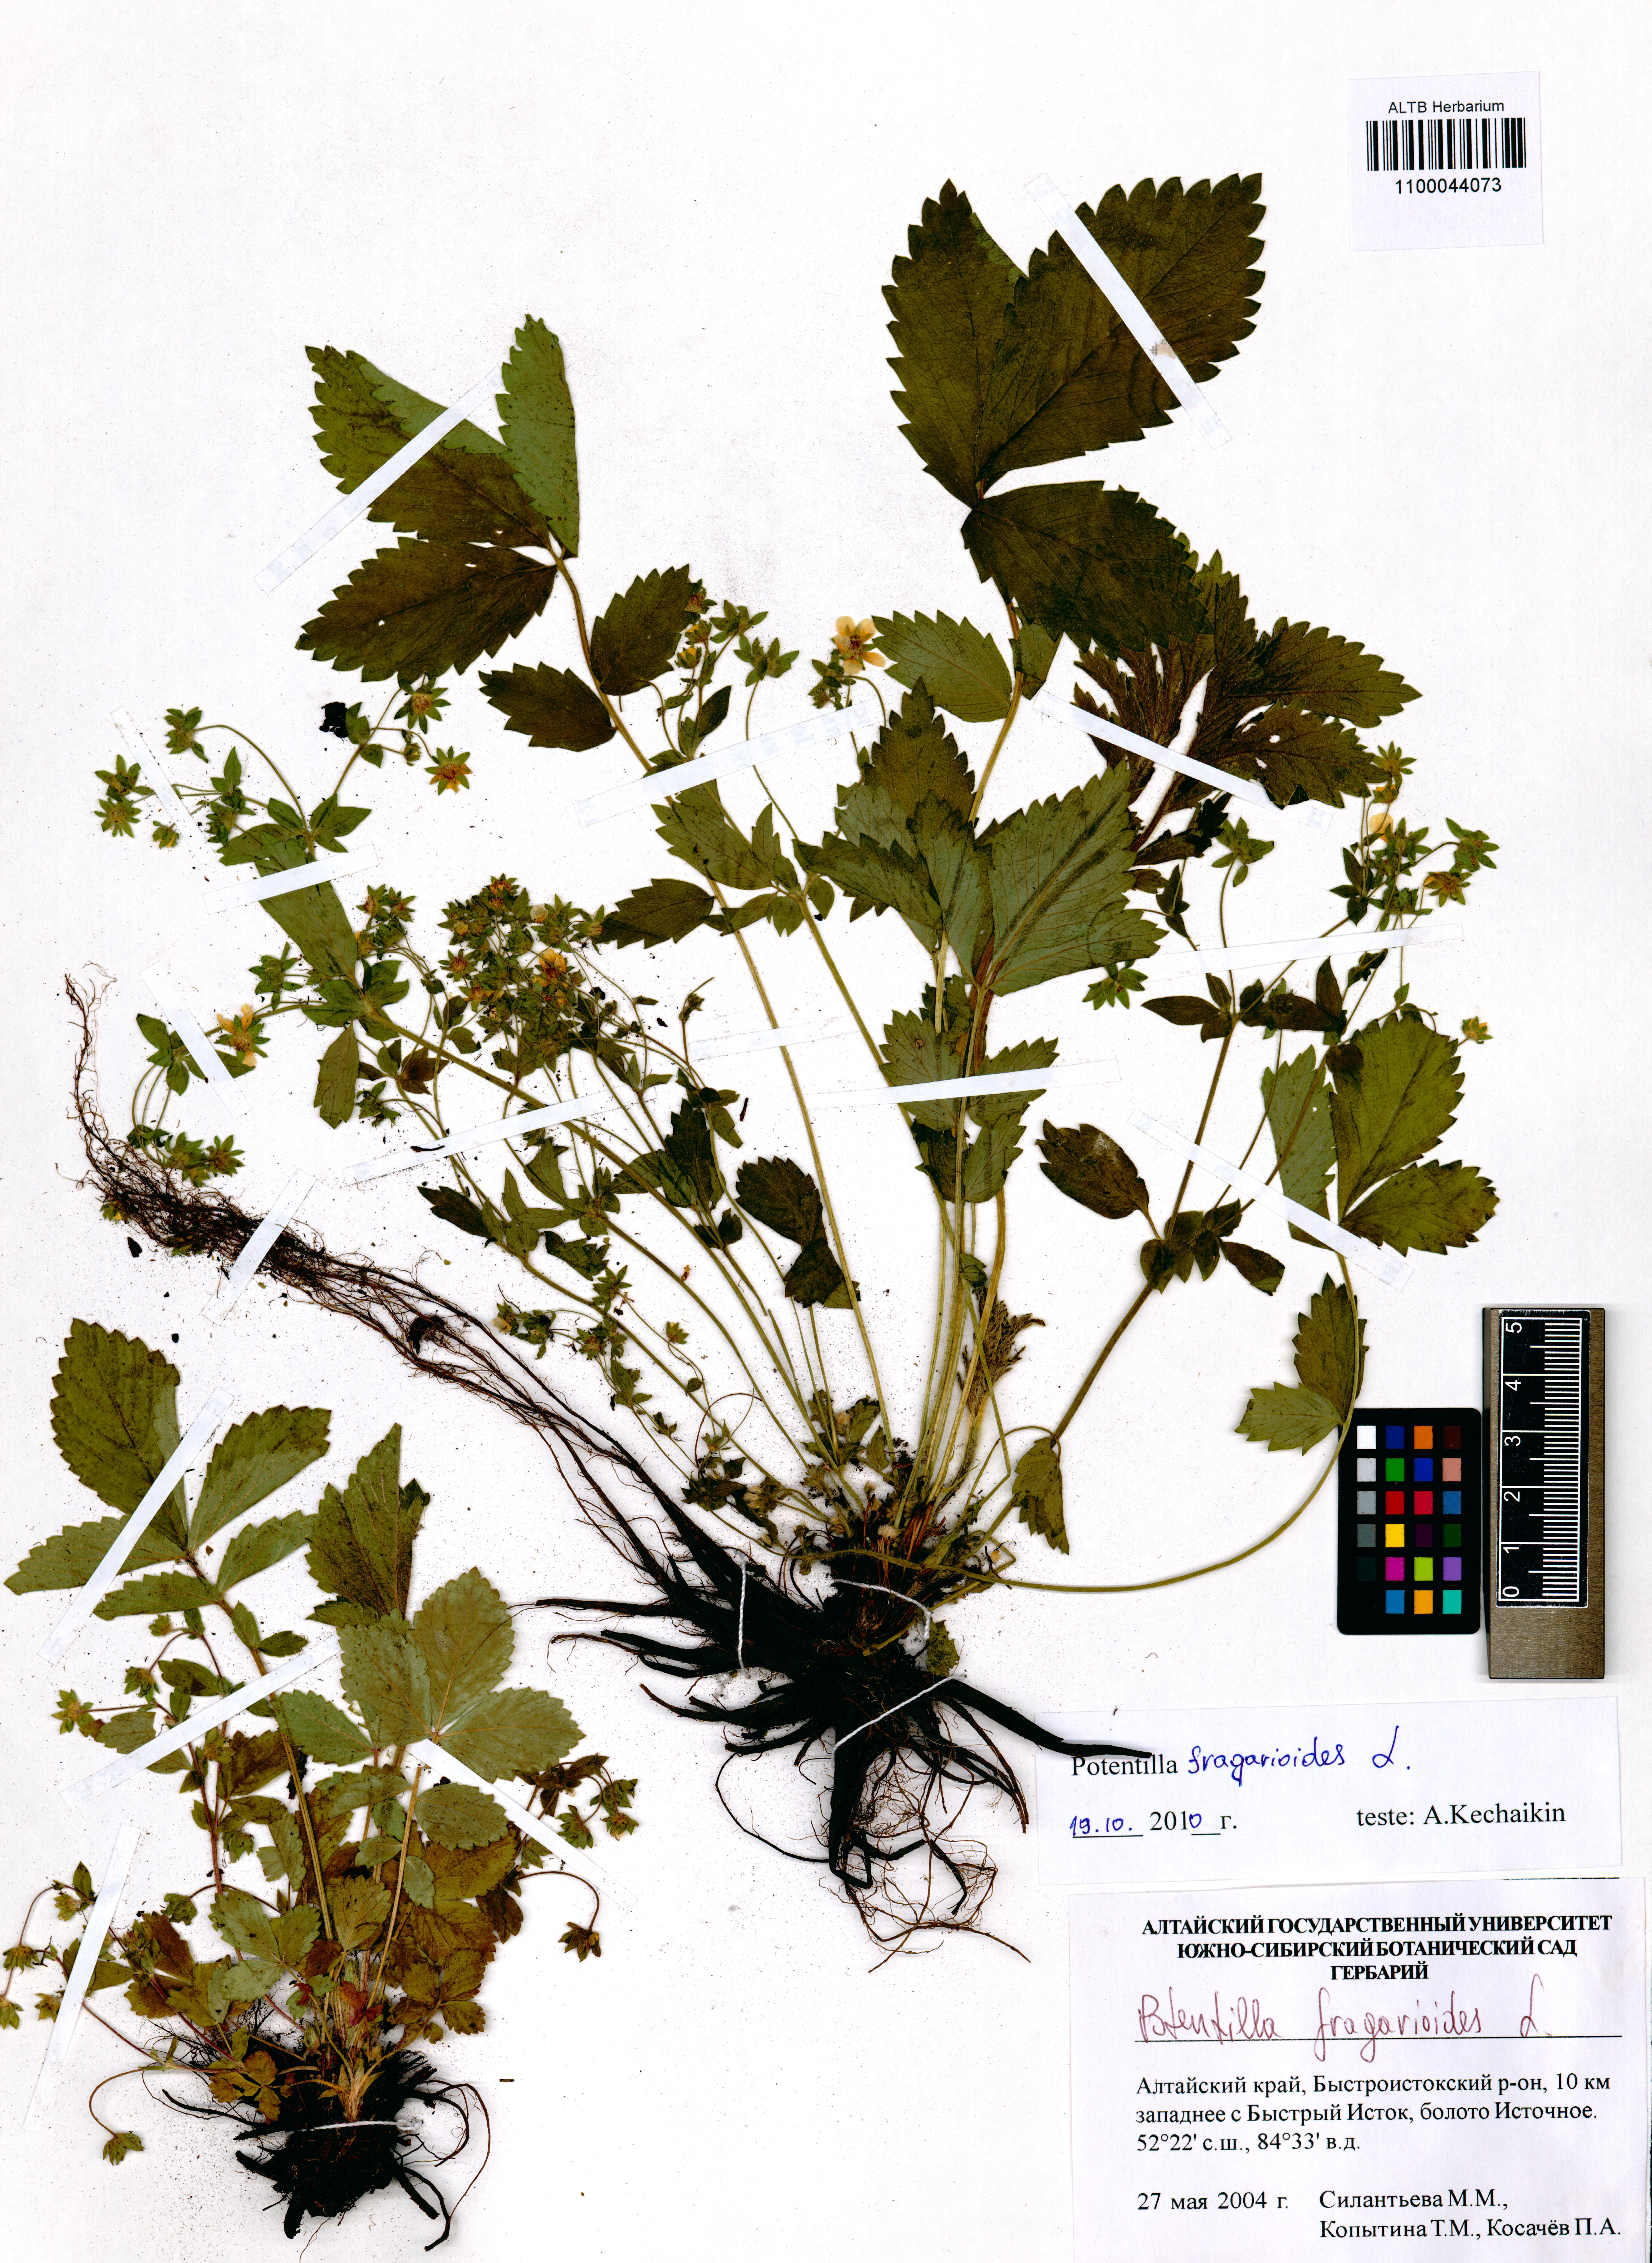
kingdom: Plantae
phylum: Tracheophyta
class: Magnoliopsida
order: Rosales
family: Rosaceae
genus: Potentilla
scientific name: Potentilla fragarioides
